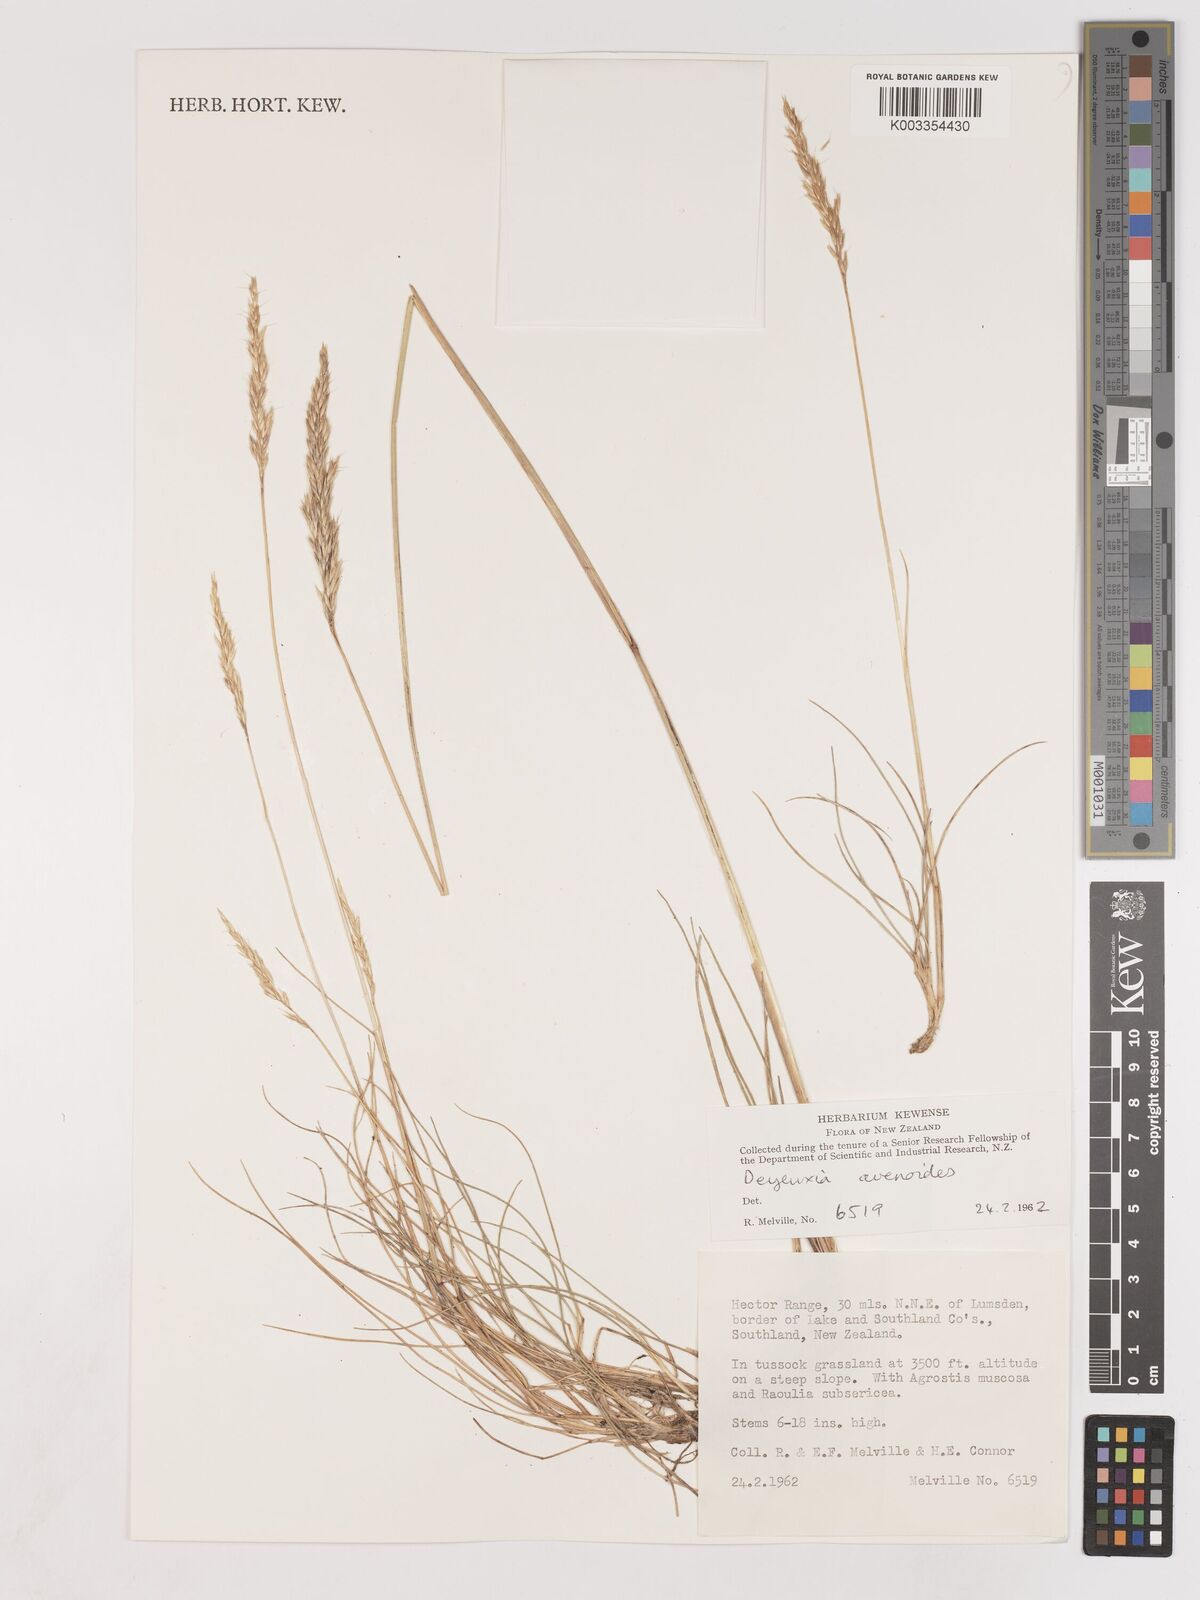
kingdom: Plantae
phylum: Tracheophyta
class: Liliopsida
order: Poales
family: Poaceae
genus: Calamagrostis
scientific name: Calamagrostis avenoides
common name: Mountain oat grass
